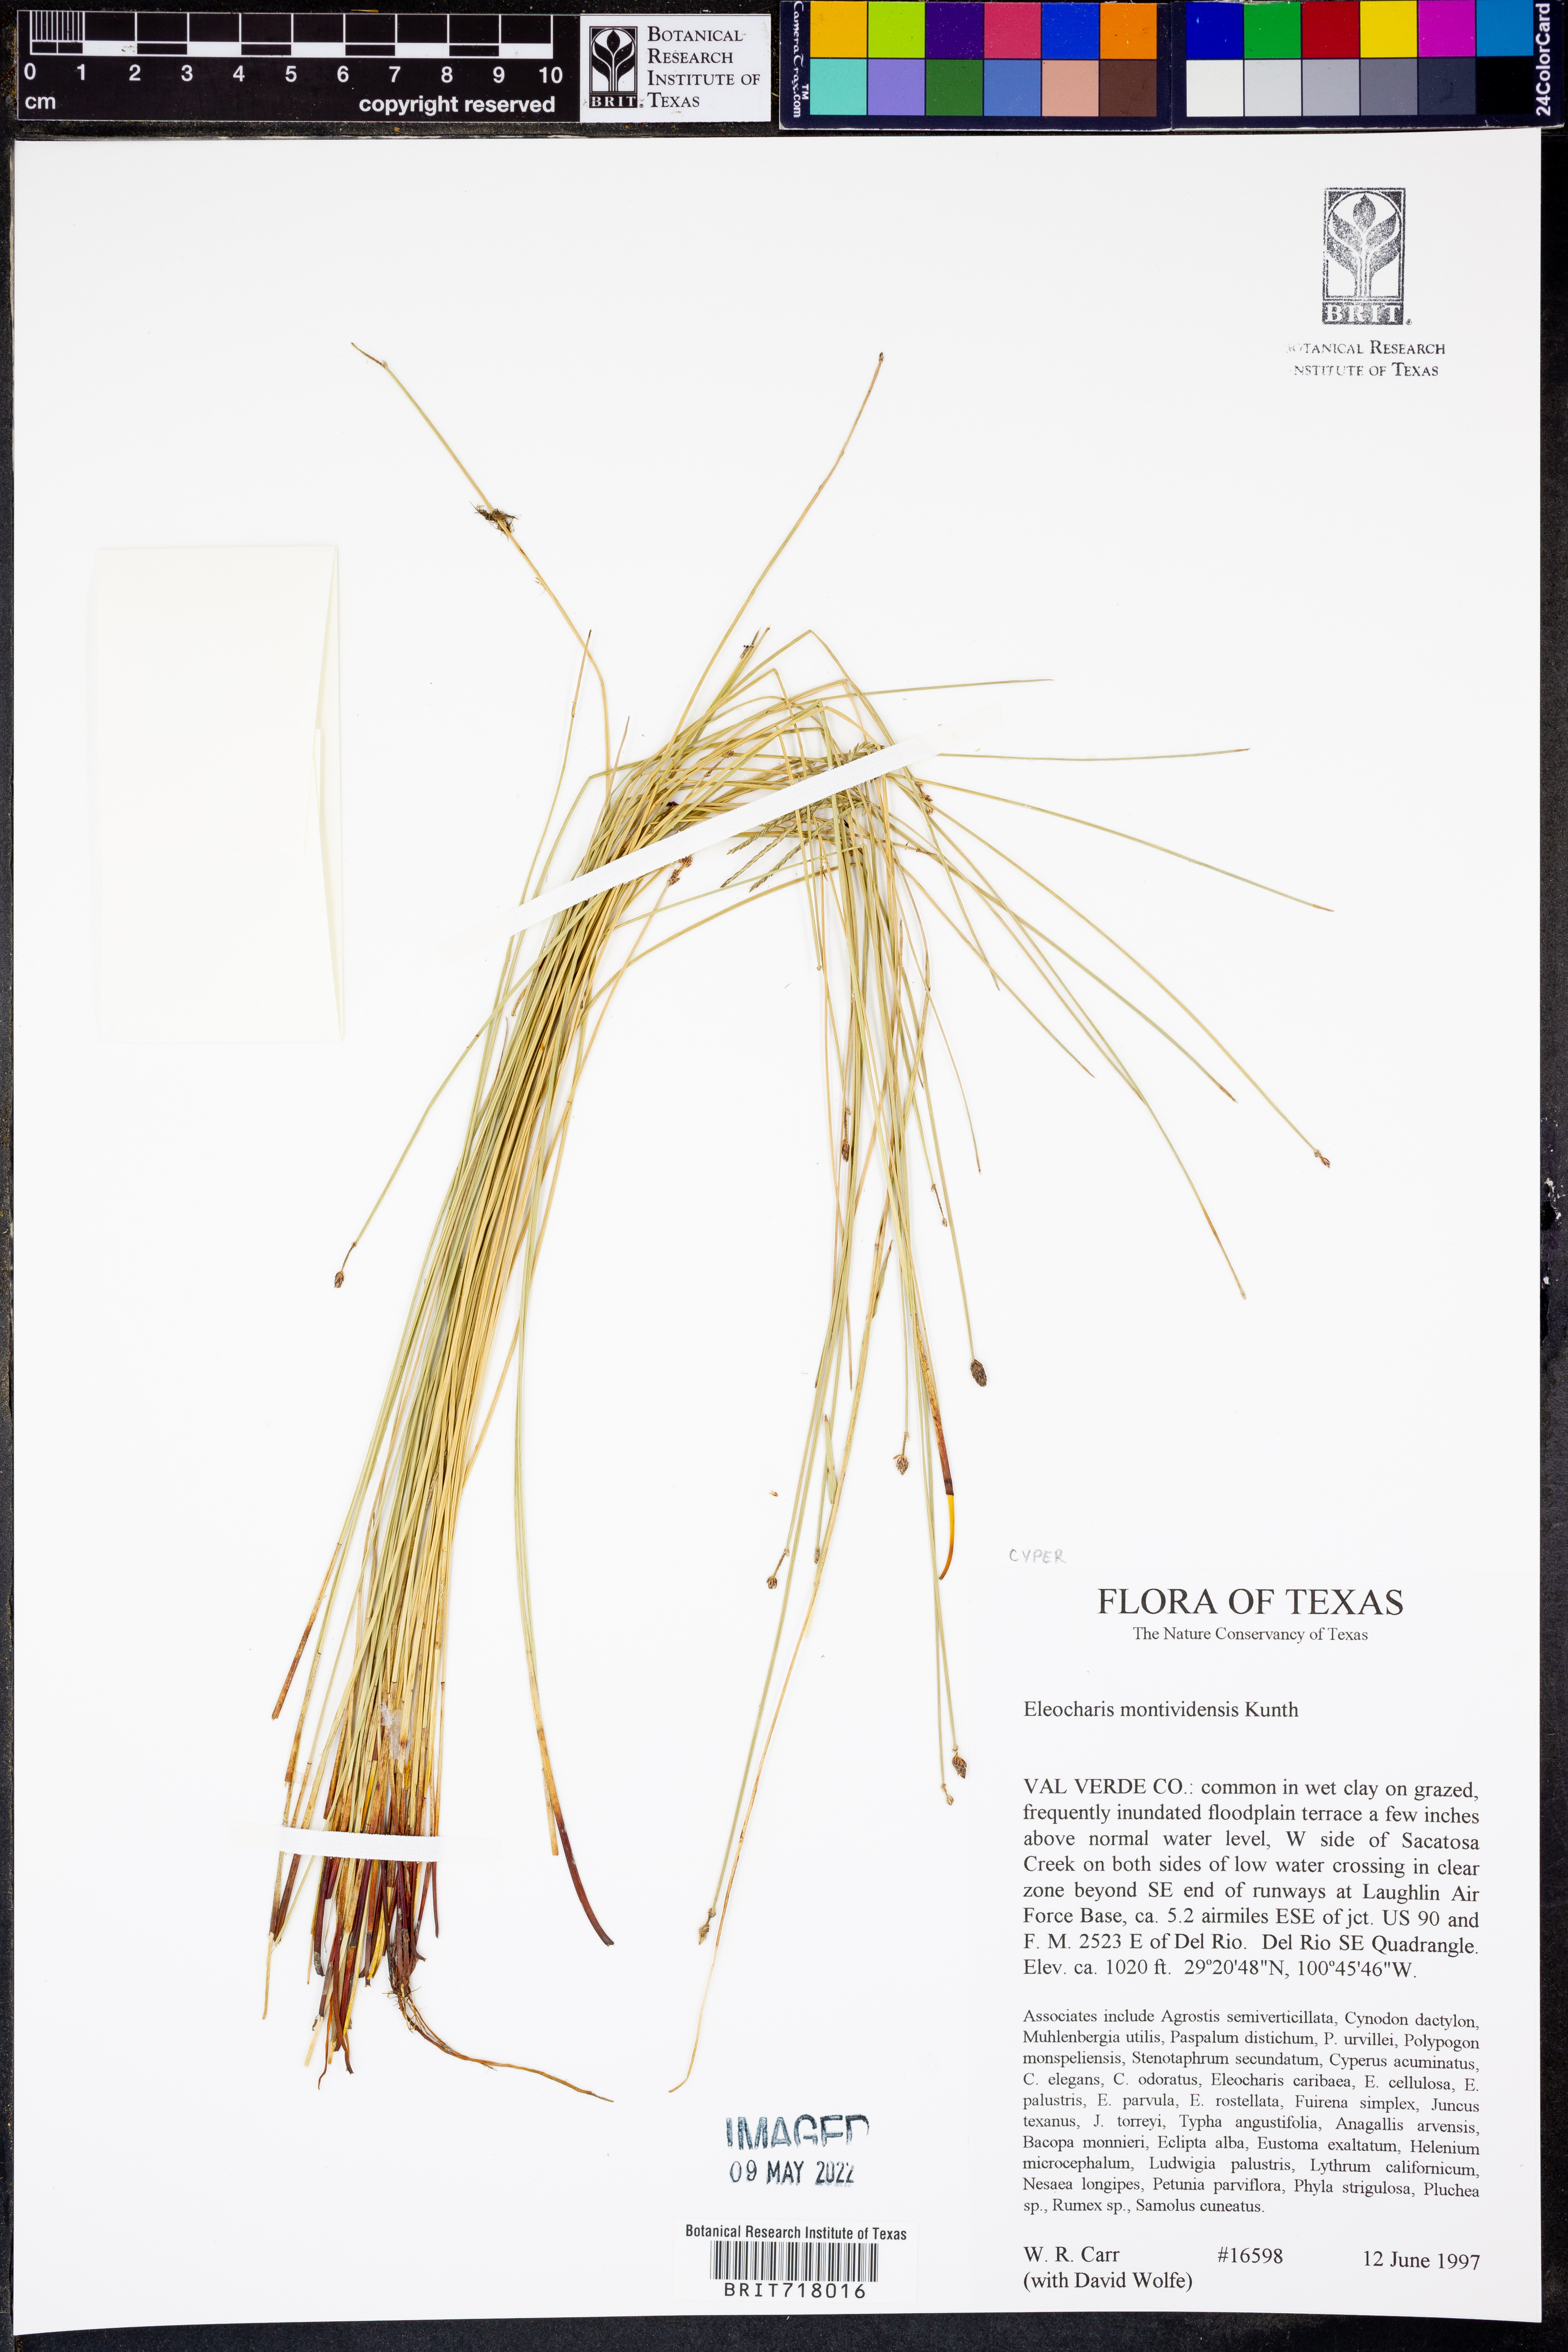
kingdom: Plantae
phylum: Tracheophyta
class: Liliopsida
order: Poales
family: Cyperaceae
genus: Eleocharis
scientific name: Eleocharis montevidensis
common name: Sand spike-rush
